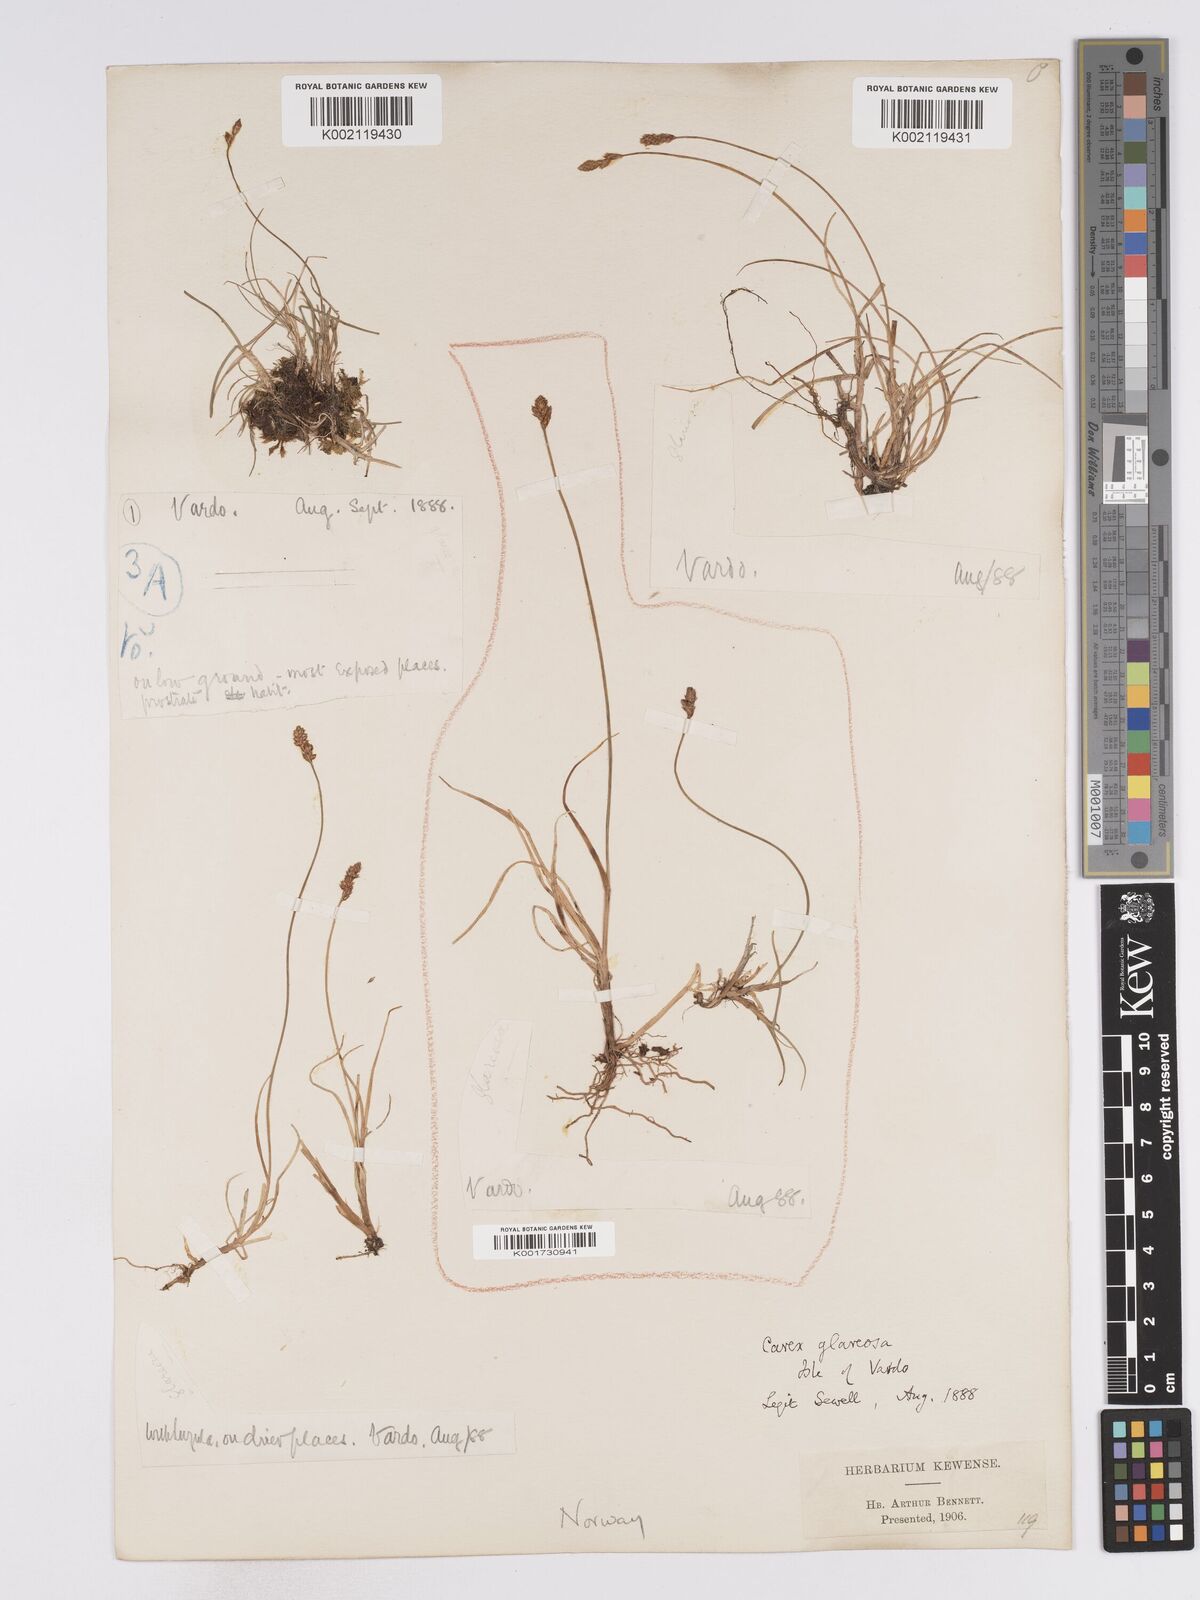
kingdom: Plantae
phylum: Tracheophyta
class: Liliopsida
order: Poales
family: Cyperaceae
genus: Carex
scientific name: Carex glareosa
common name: Clustered sedge
